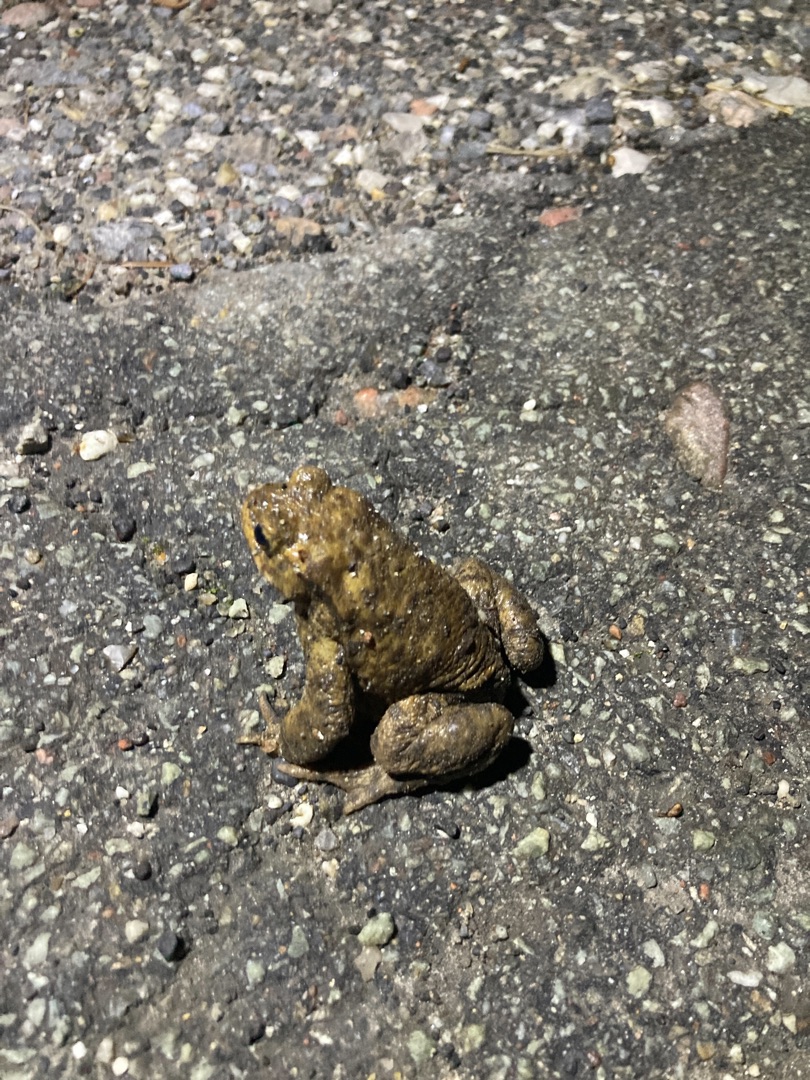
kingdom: Animalia
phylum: Chordata
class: Amphibia
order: Anura
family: Bufonidae
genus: Bufo
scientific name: Bufo bufo
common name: Skrubtudse
